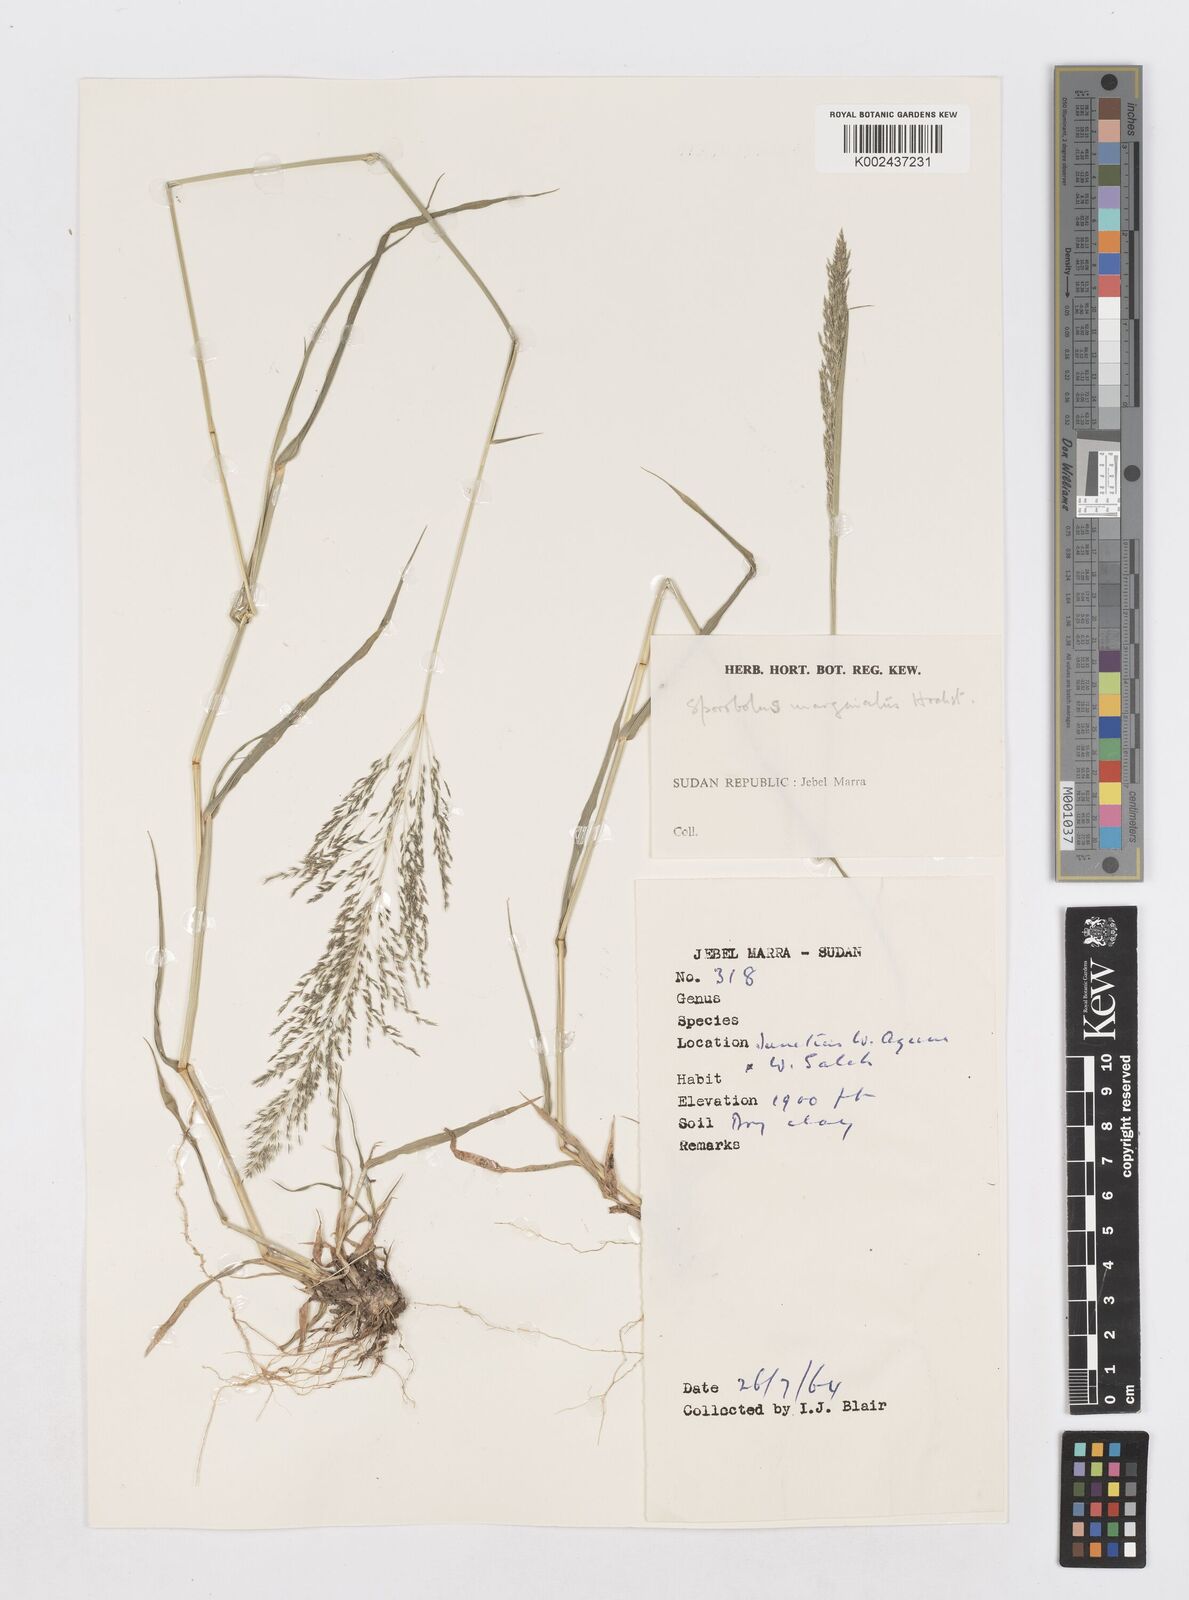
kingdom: Plantae
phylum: Tracheophyta
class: Liliopsida
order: Poales
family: Poaceae
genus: Sporobolus
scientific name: Sporobolus ioclados
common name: Pan dropseed
